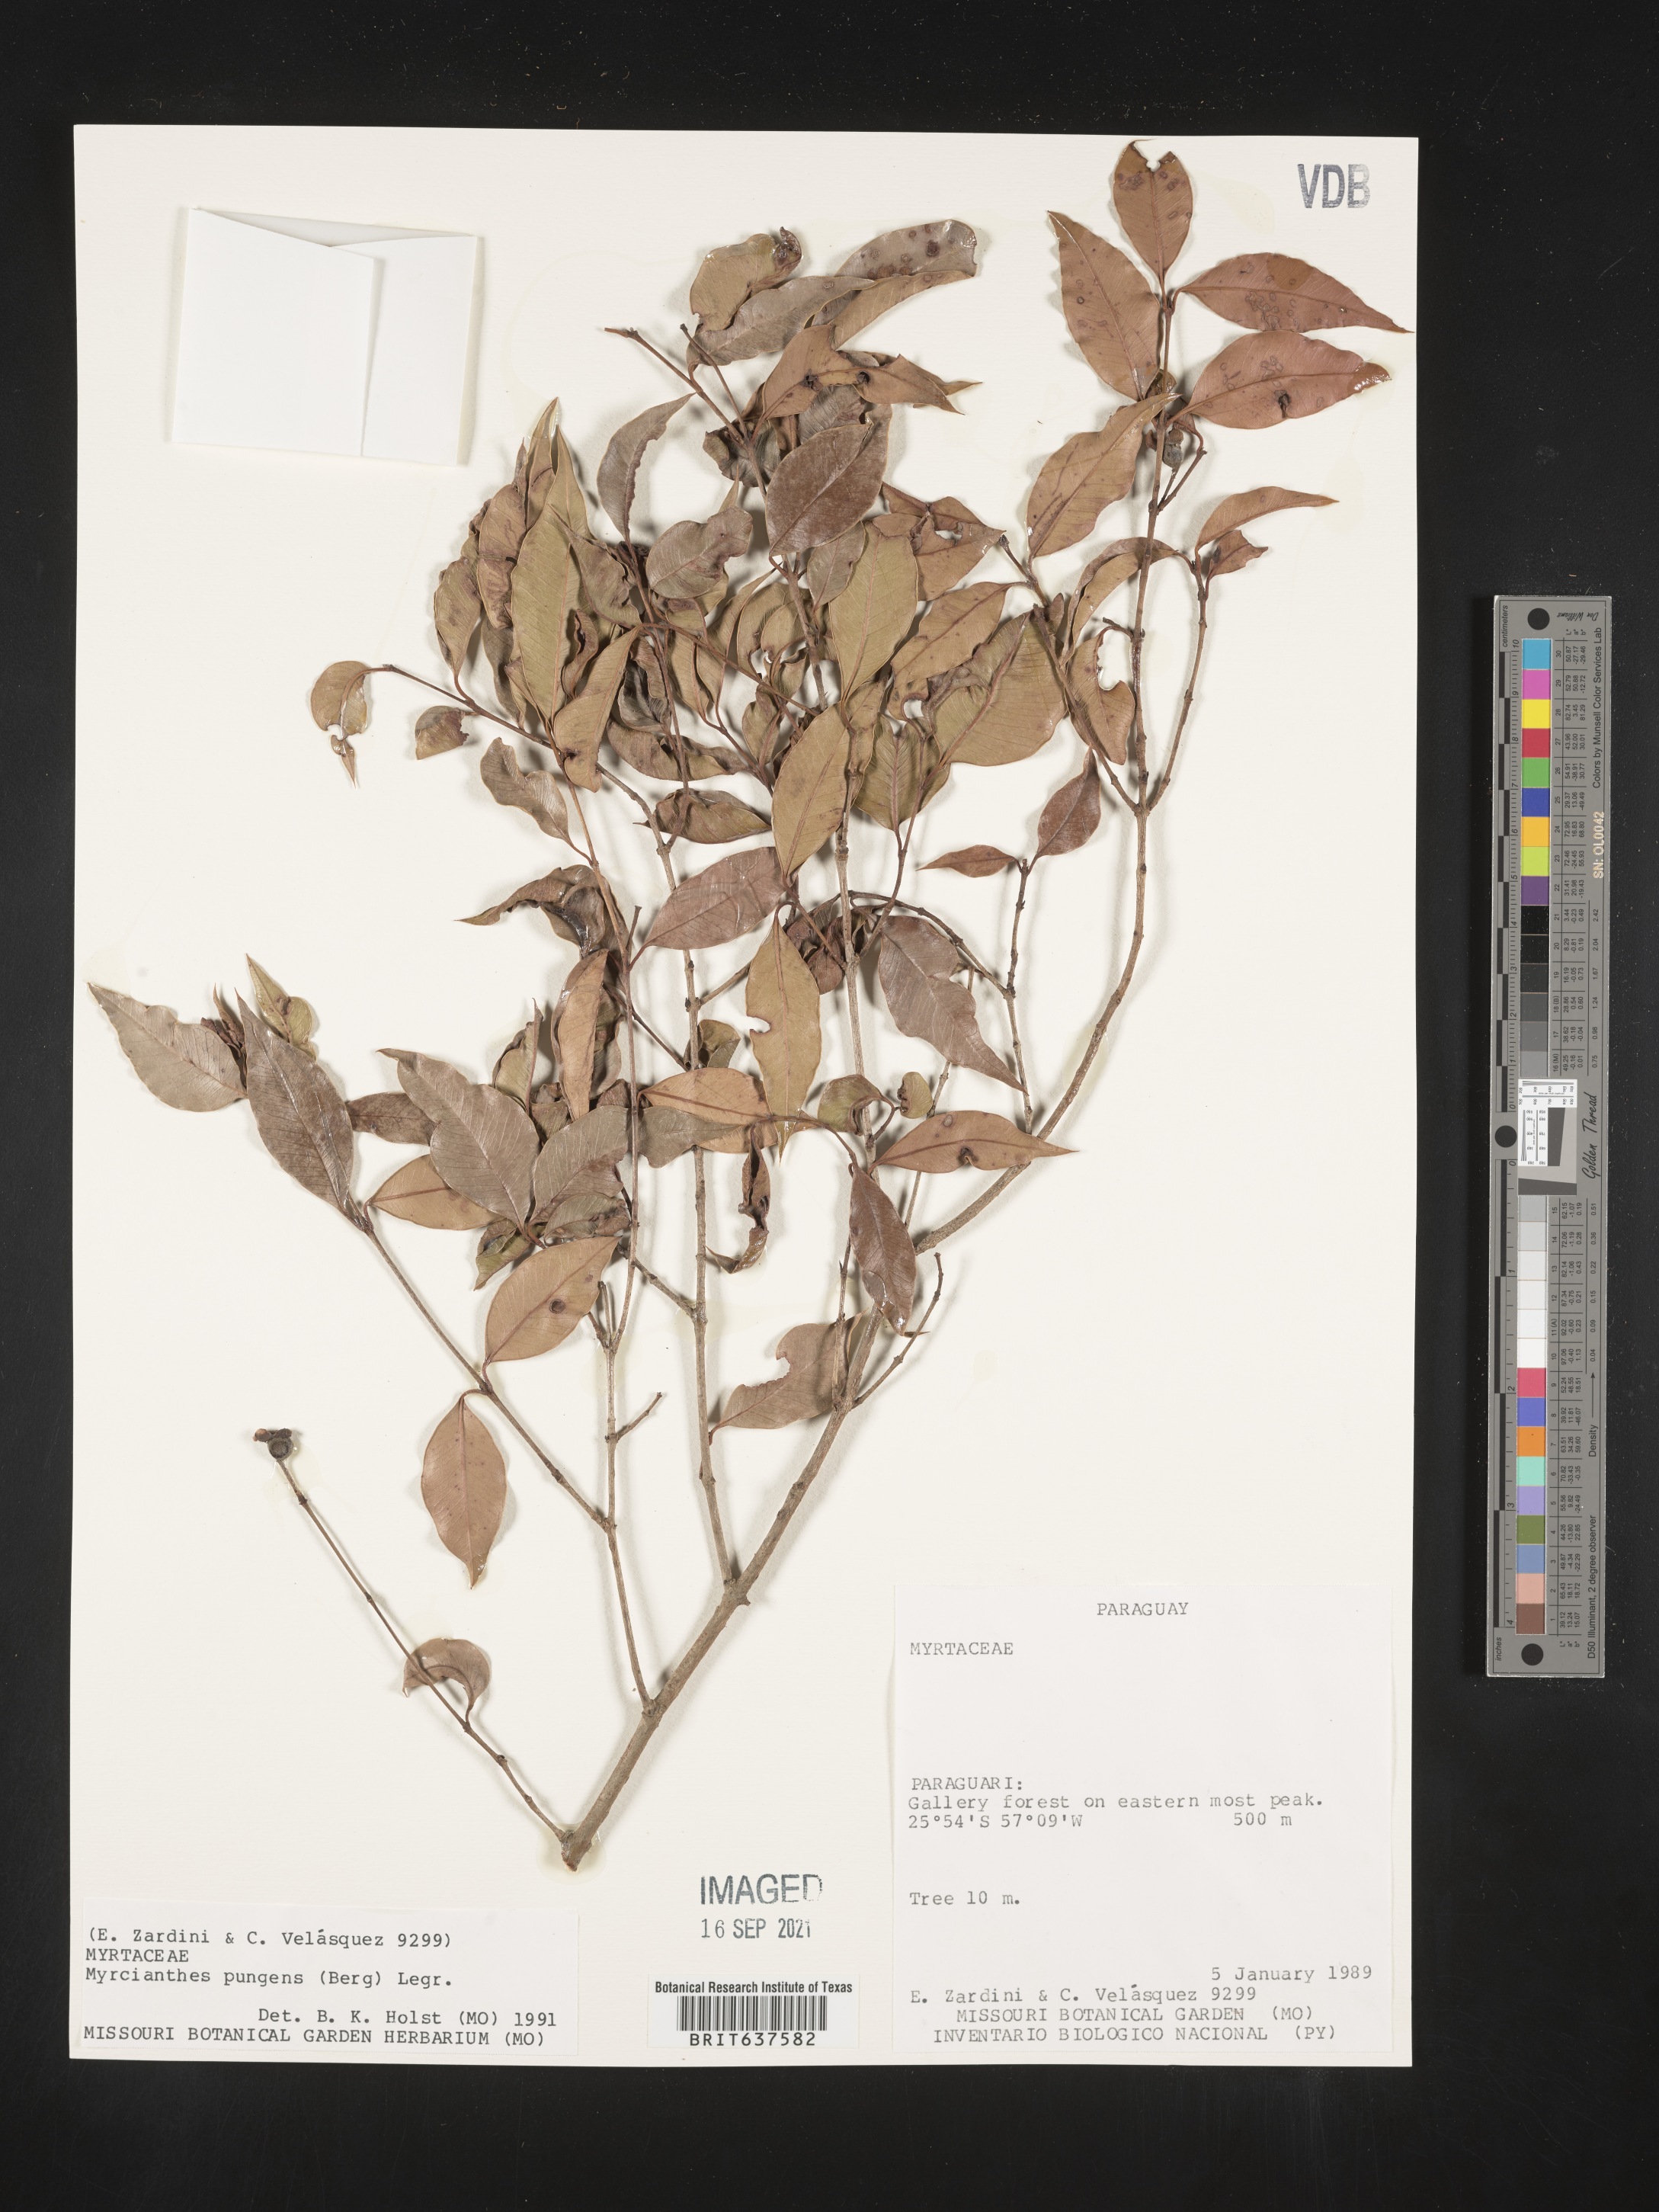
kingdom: Plantae
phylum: Tracheophyta
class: Magnoliopsida
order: Myrtales
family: Myrtaceae
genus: Myrcianthes
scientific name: Myrcianthes
